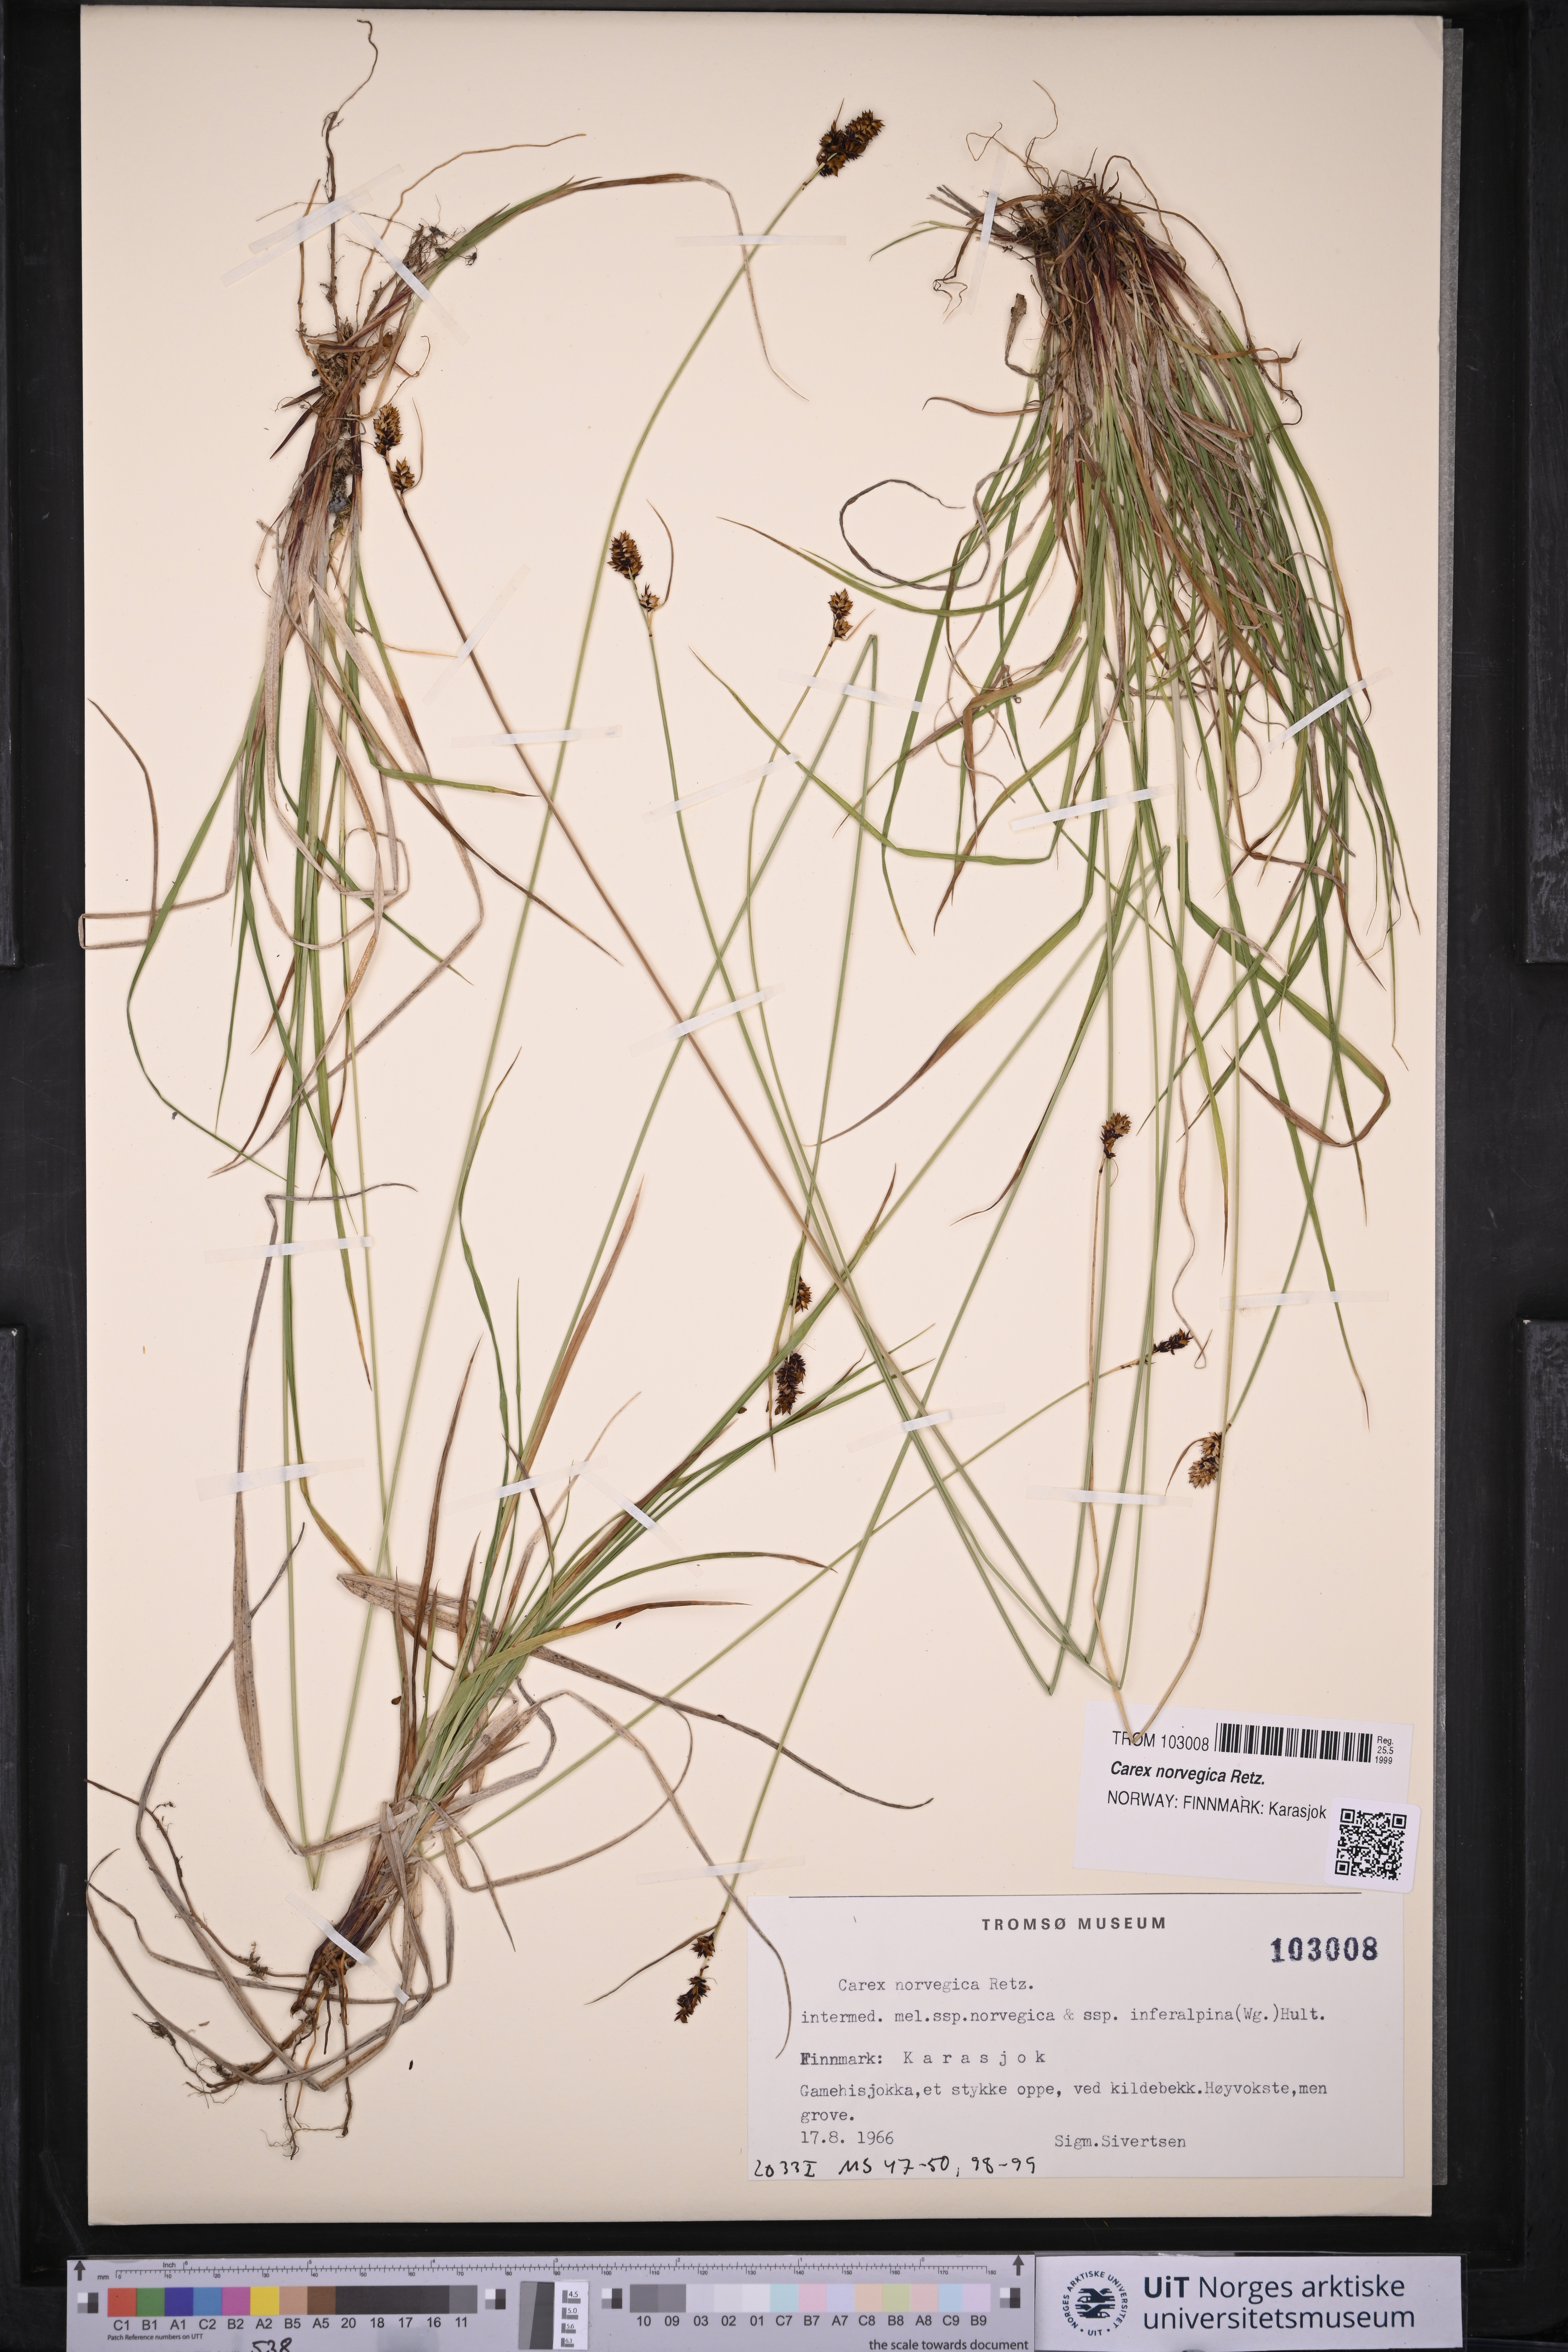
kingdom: Plantae
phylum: Tracheophyta
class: Liliopsida
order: Poales
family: Cyperaceae
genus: Carex
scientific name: Carex norvegica
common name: Close-headed alpine-sedge
